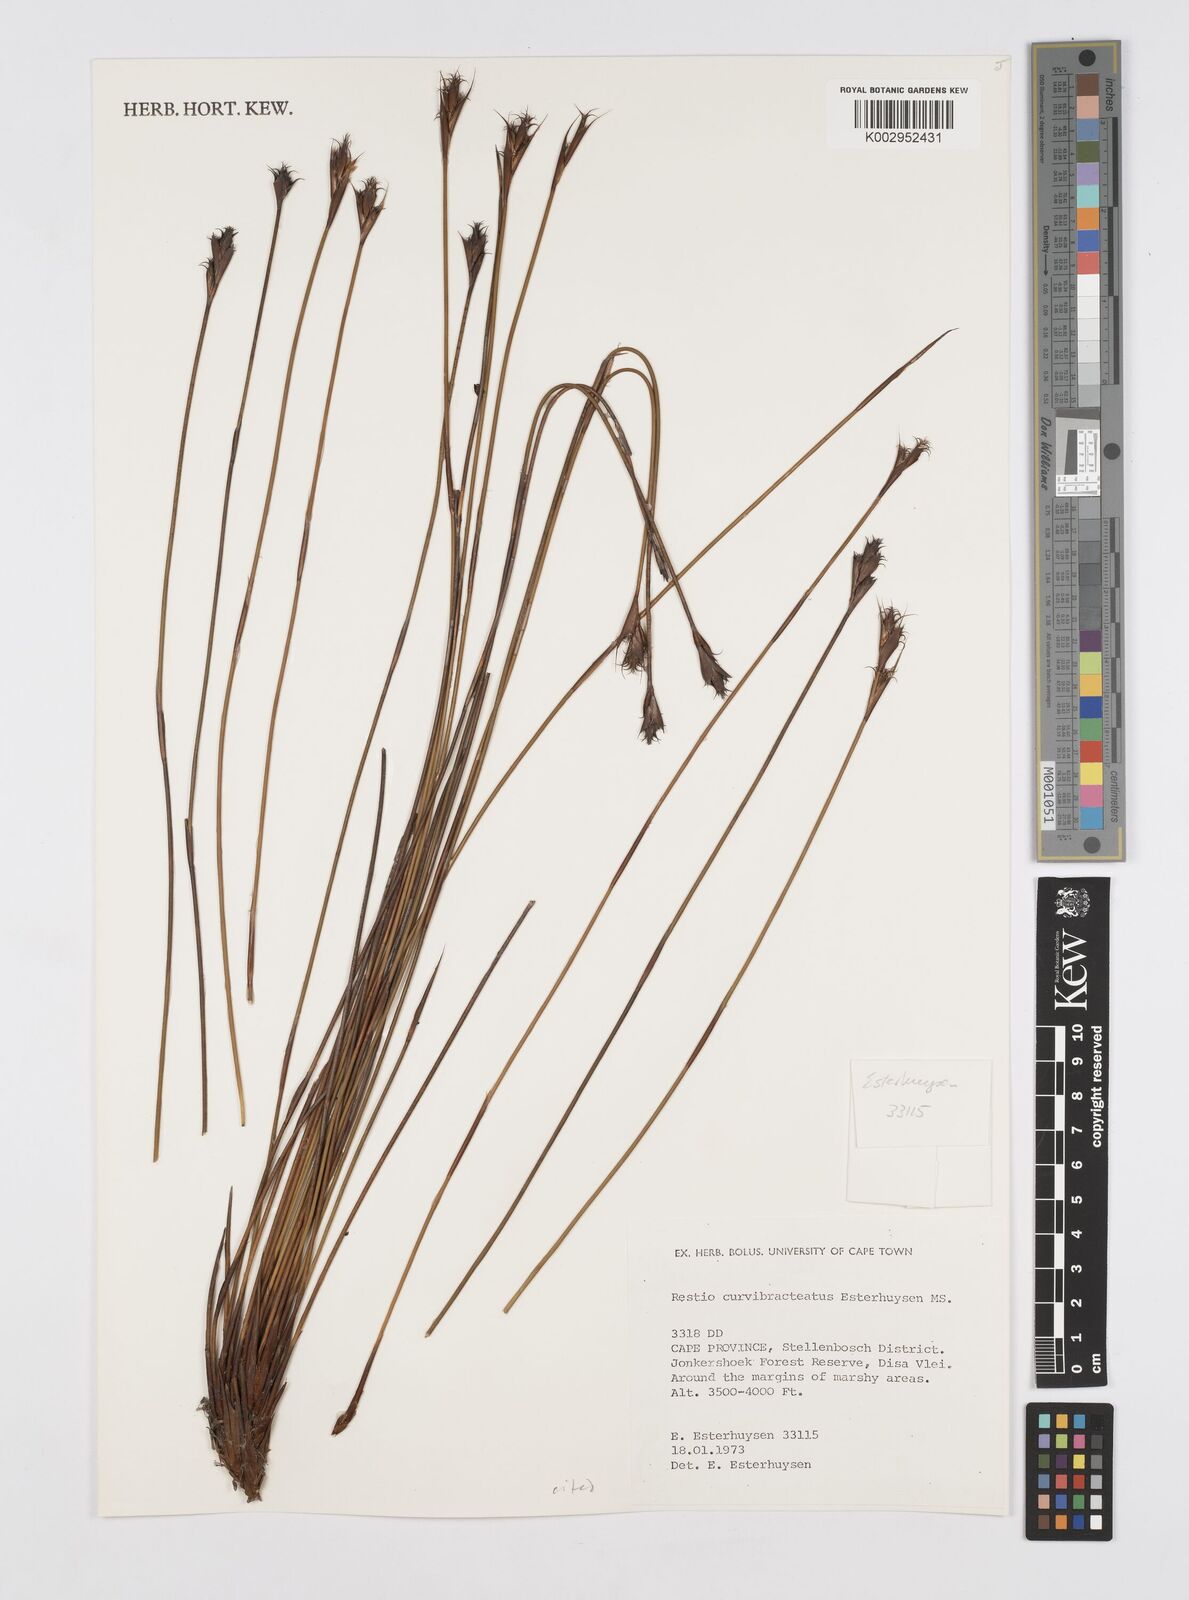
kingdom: Plantae
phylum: Tracheophyta
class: Liliopsida
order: Poales
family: Restionaceae
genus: Restio
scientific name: Restio curvibracteatus
